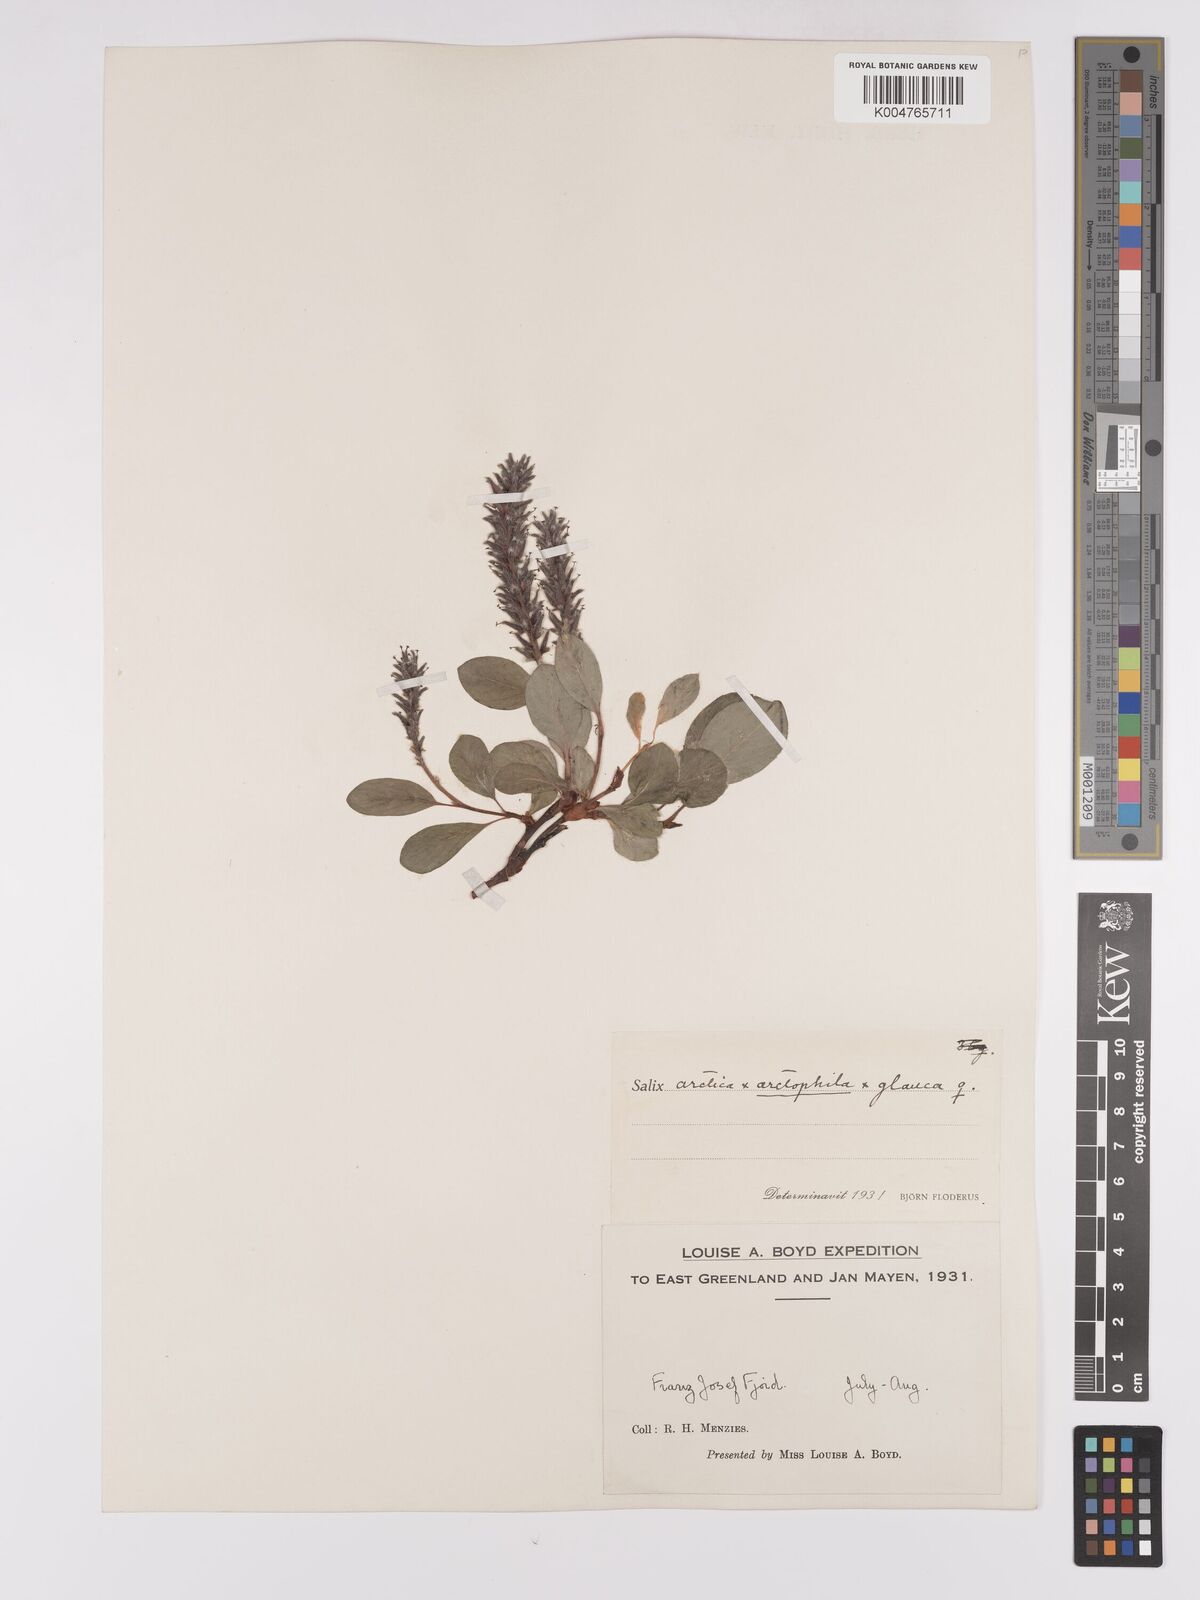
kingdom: Plantae
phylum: Tracheophyta
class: Magnoliopsida
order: Malpighiales
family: Salicaceae
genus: Salix
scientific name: Salix arctophila
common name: Greenland willow
